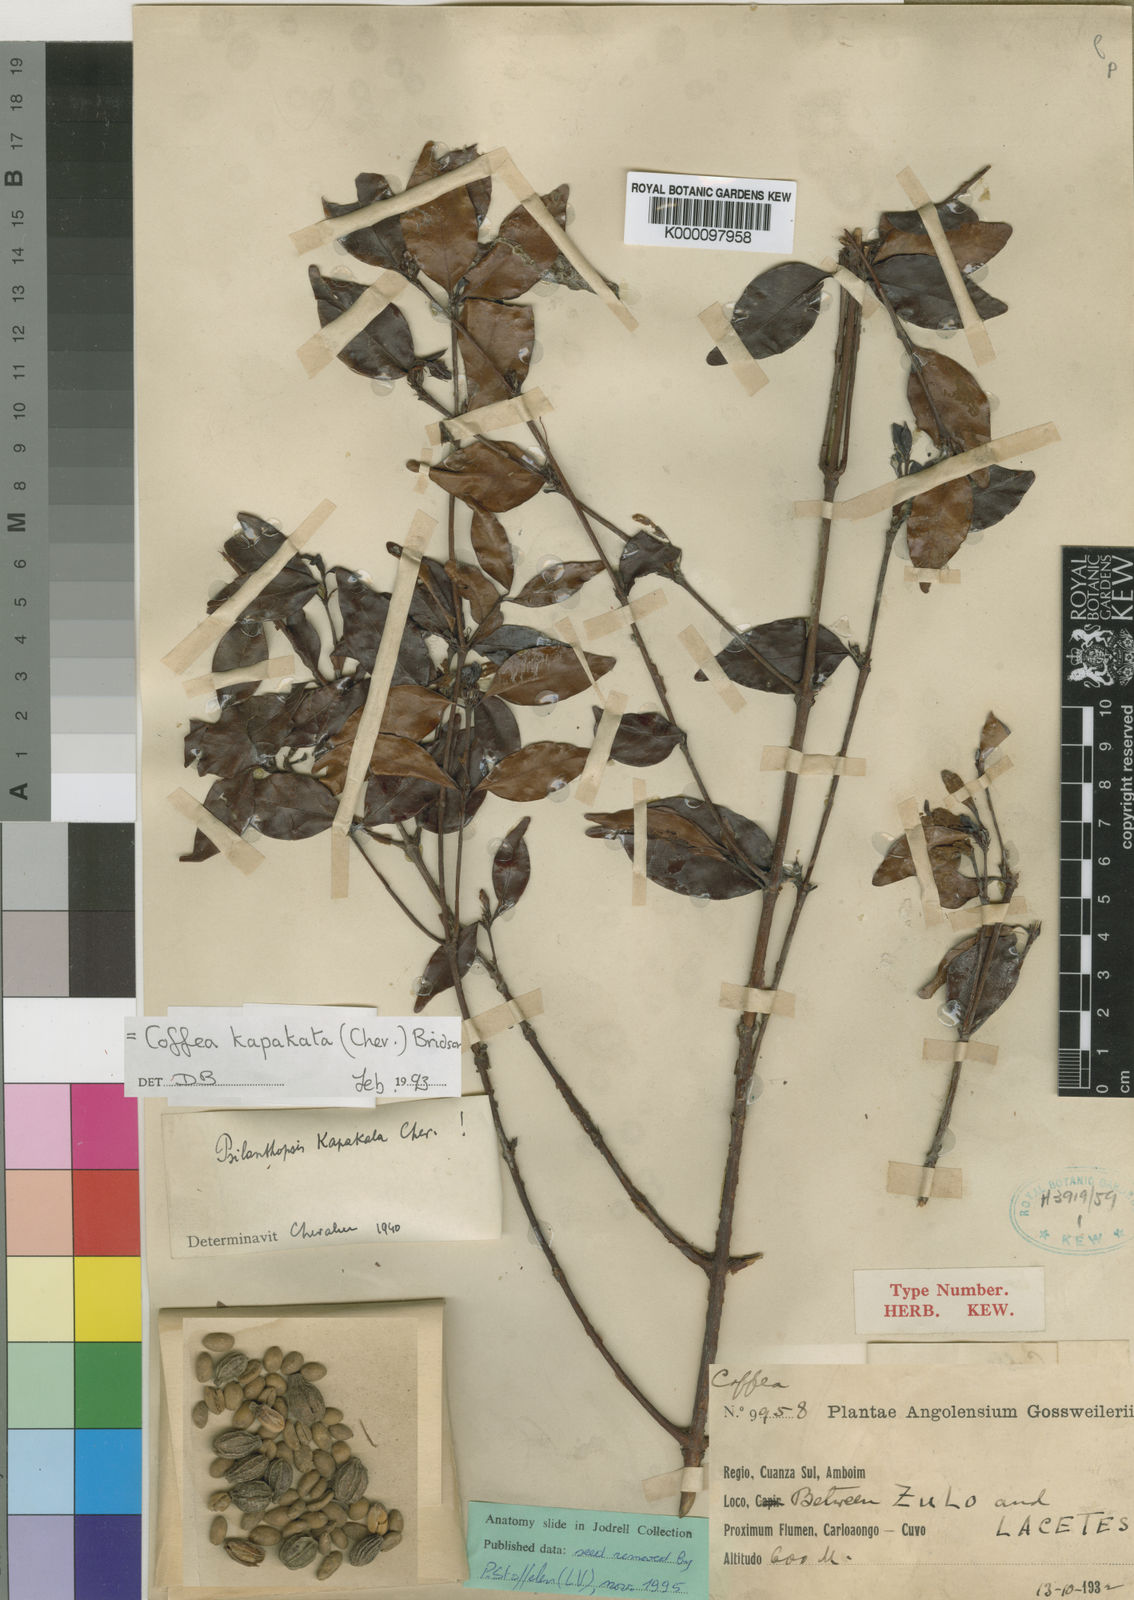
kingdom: Plantae
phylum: Tracheophyta
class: Magnoliopsida
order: Gentianales
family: Rubiaceae
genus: Coffea
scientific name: Coffea kapakata
